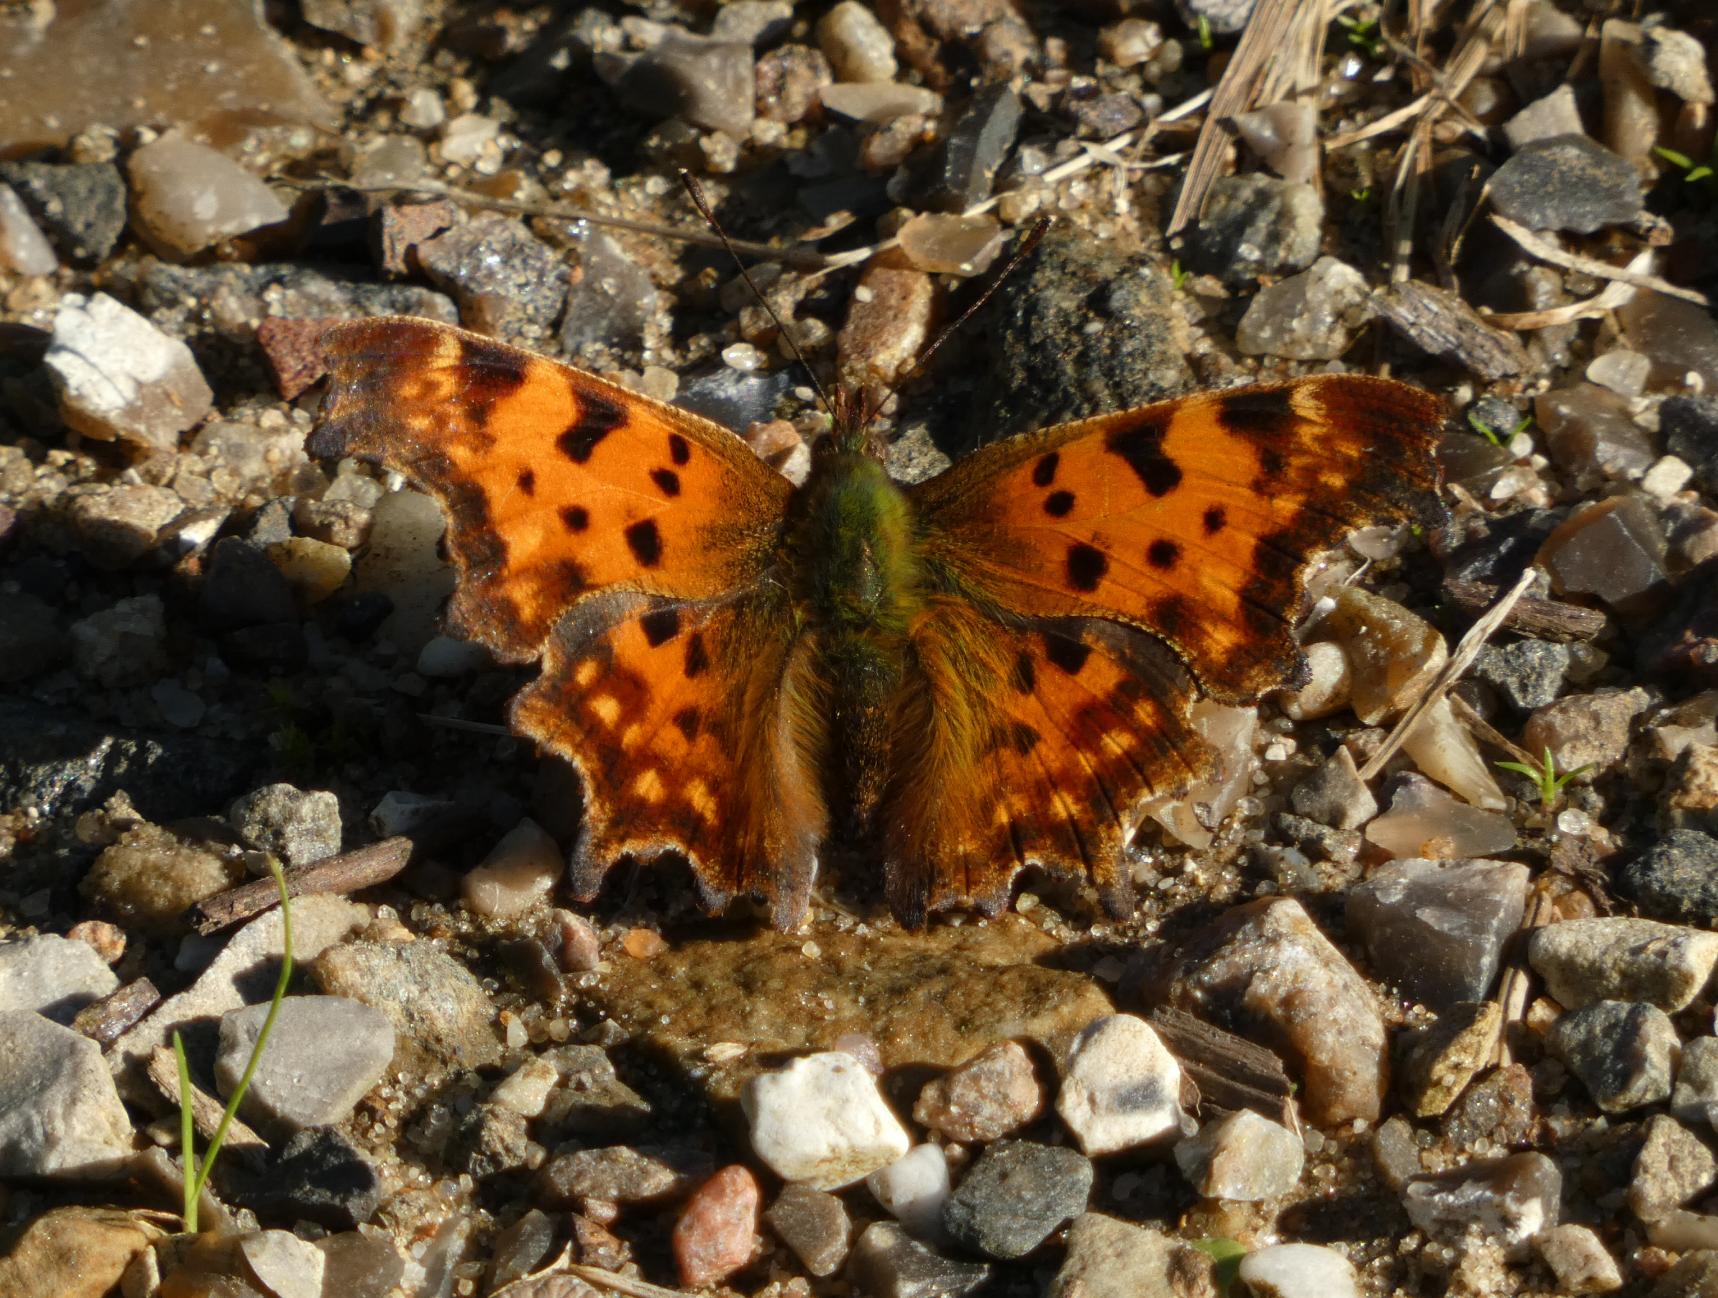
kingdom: Animalia
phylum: Arthropoda
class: Insecta
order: Lepidoptera
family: Nymphalidae
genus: Polygonia
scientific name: Polygonia c-album
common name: Det hvide C
